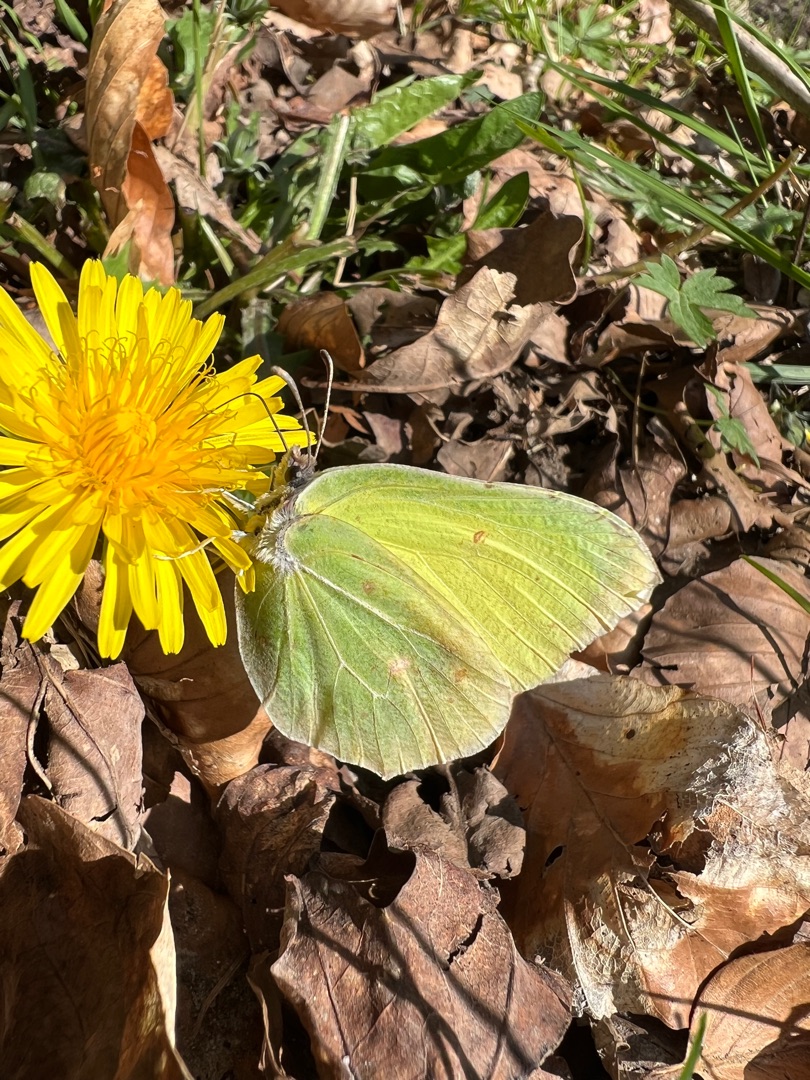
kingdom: Animalia
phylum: Arthropoda
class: Insecta
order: Lepidoptera
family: Pieridae
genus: Gonepteryx
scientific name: Gonepteryx rhamni
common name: Citronsommerfugl
